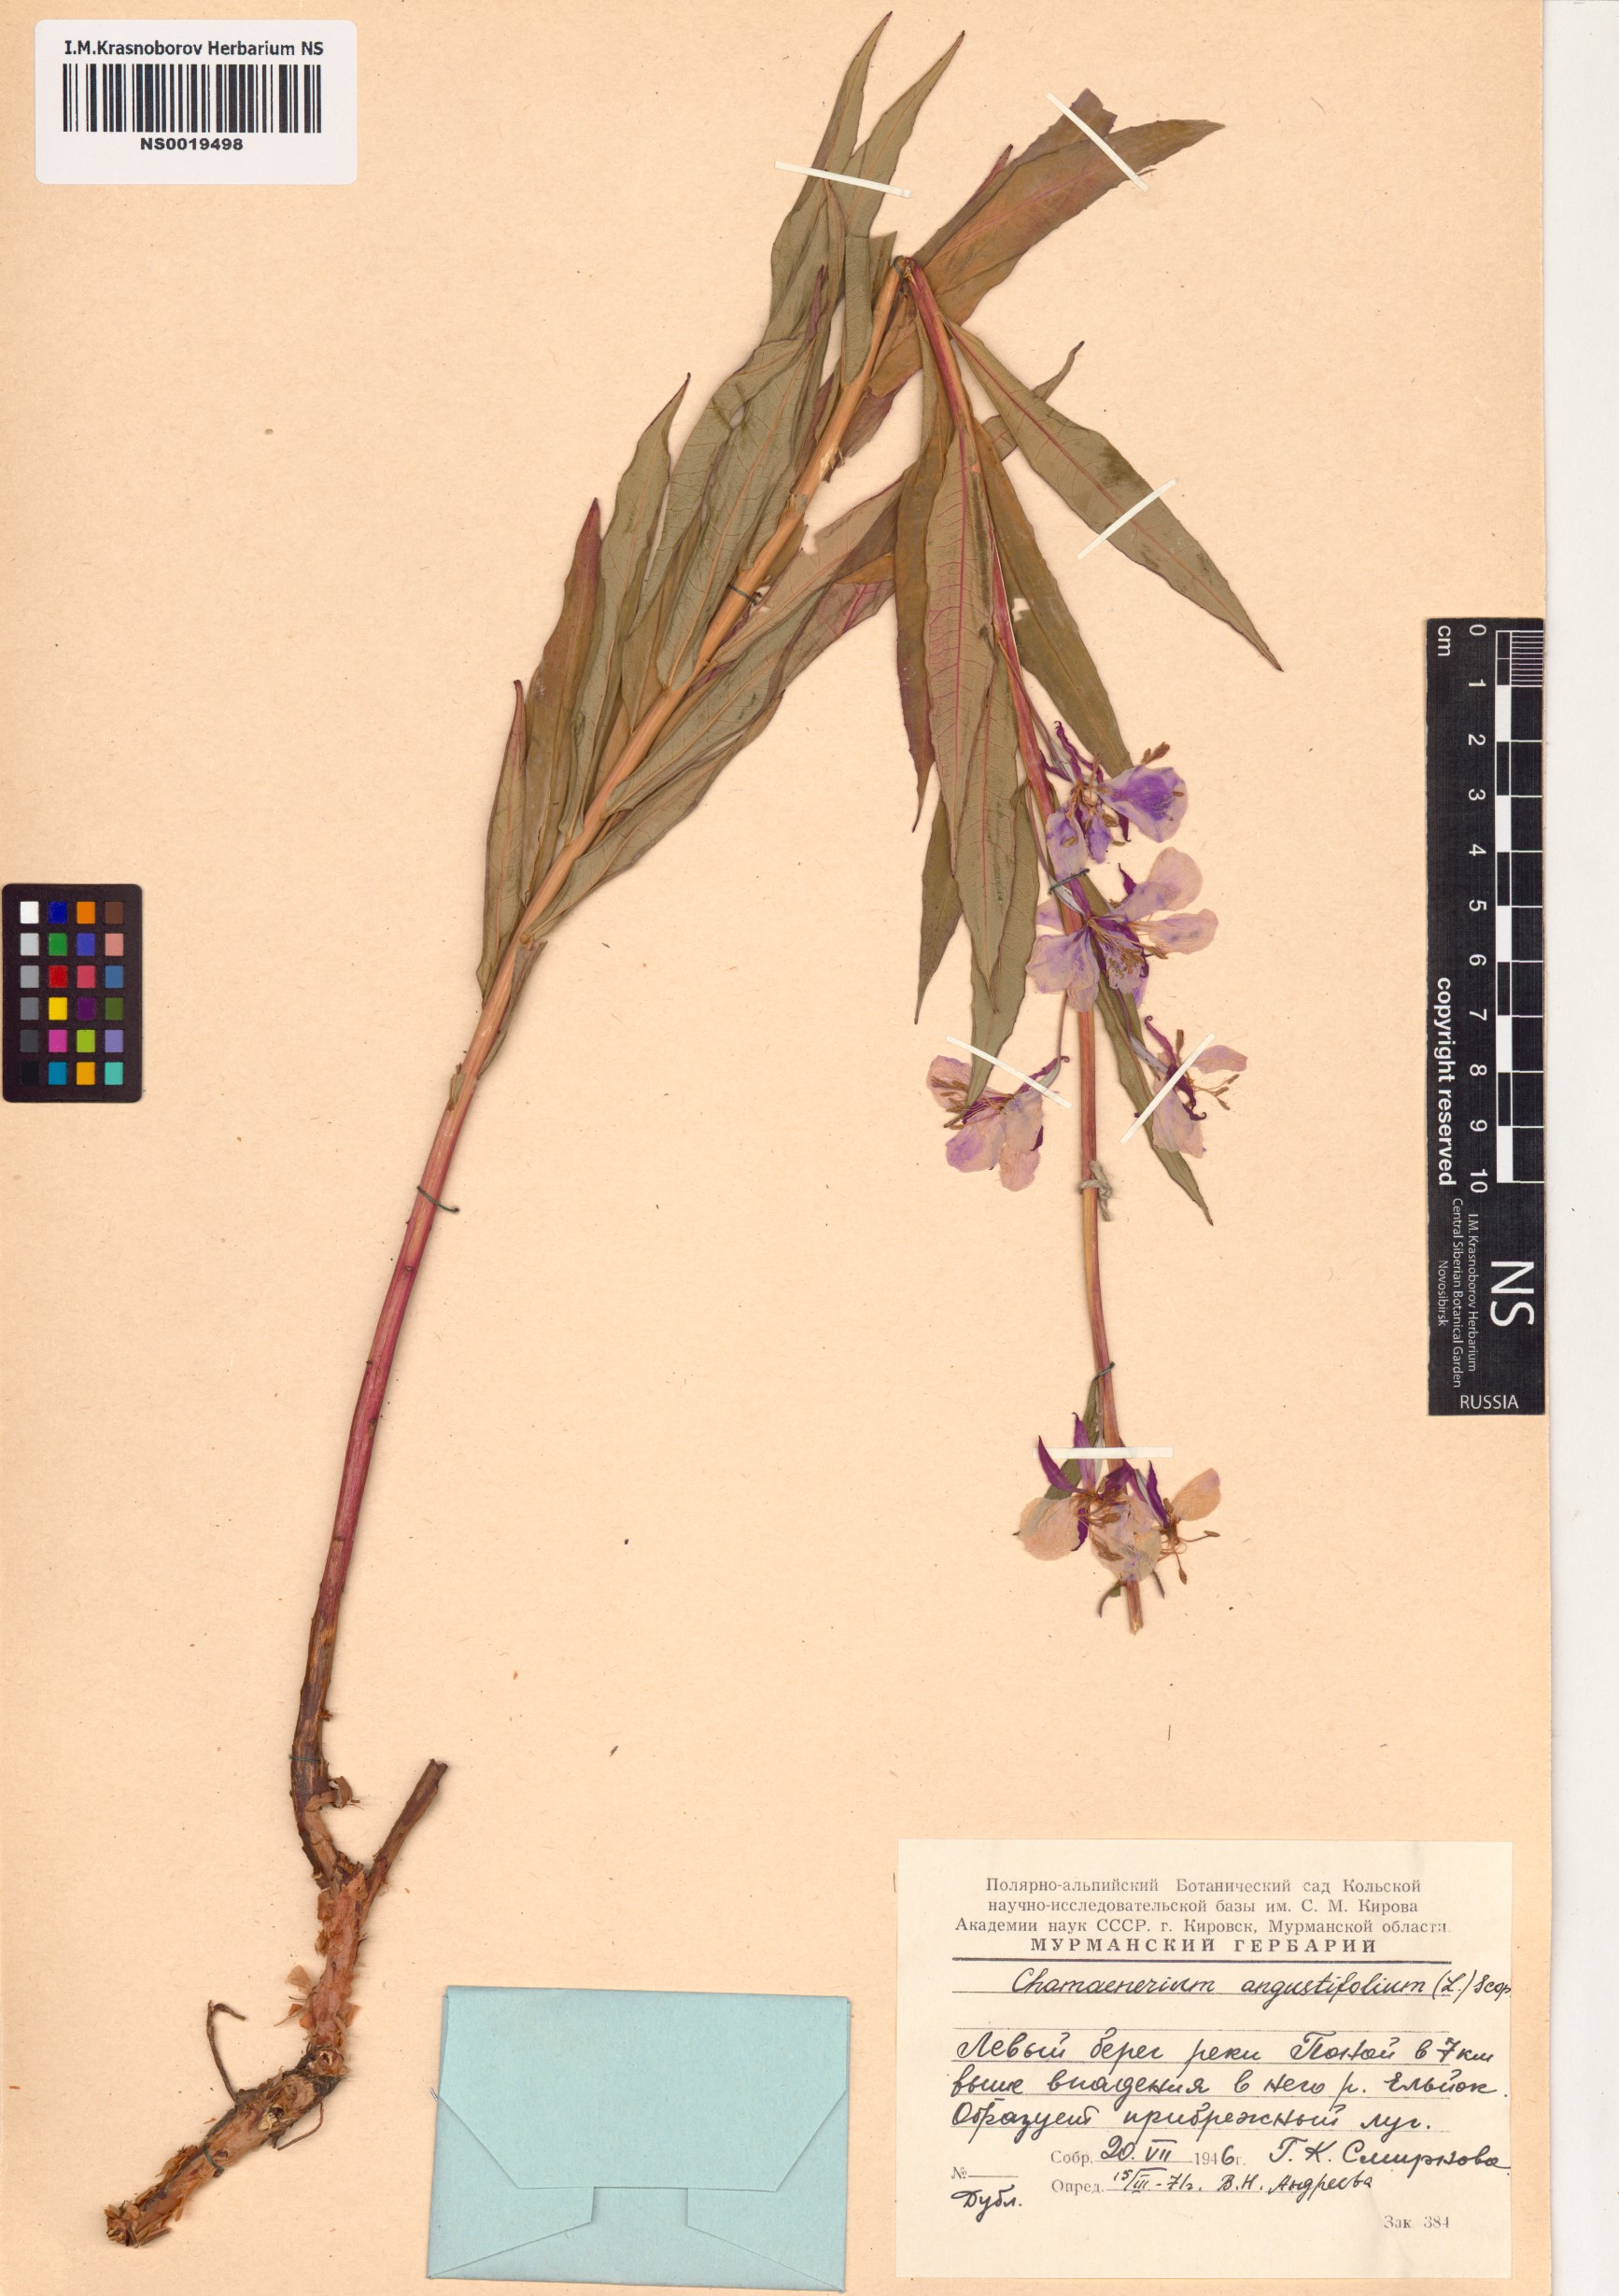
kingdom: Plantae
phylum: Tracheophyta
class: Magnoliopsida
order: Myrtales
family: Onagraceae
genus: Chamaenerion
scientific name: Chamaenerion angustifolium
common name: Fireweed
